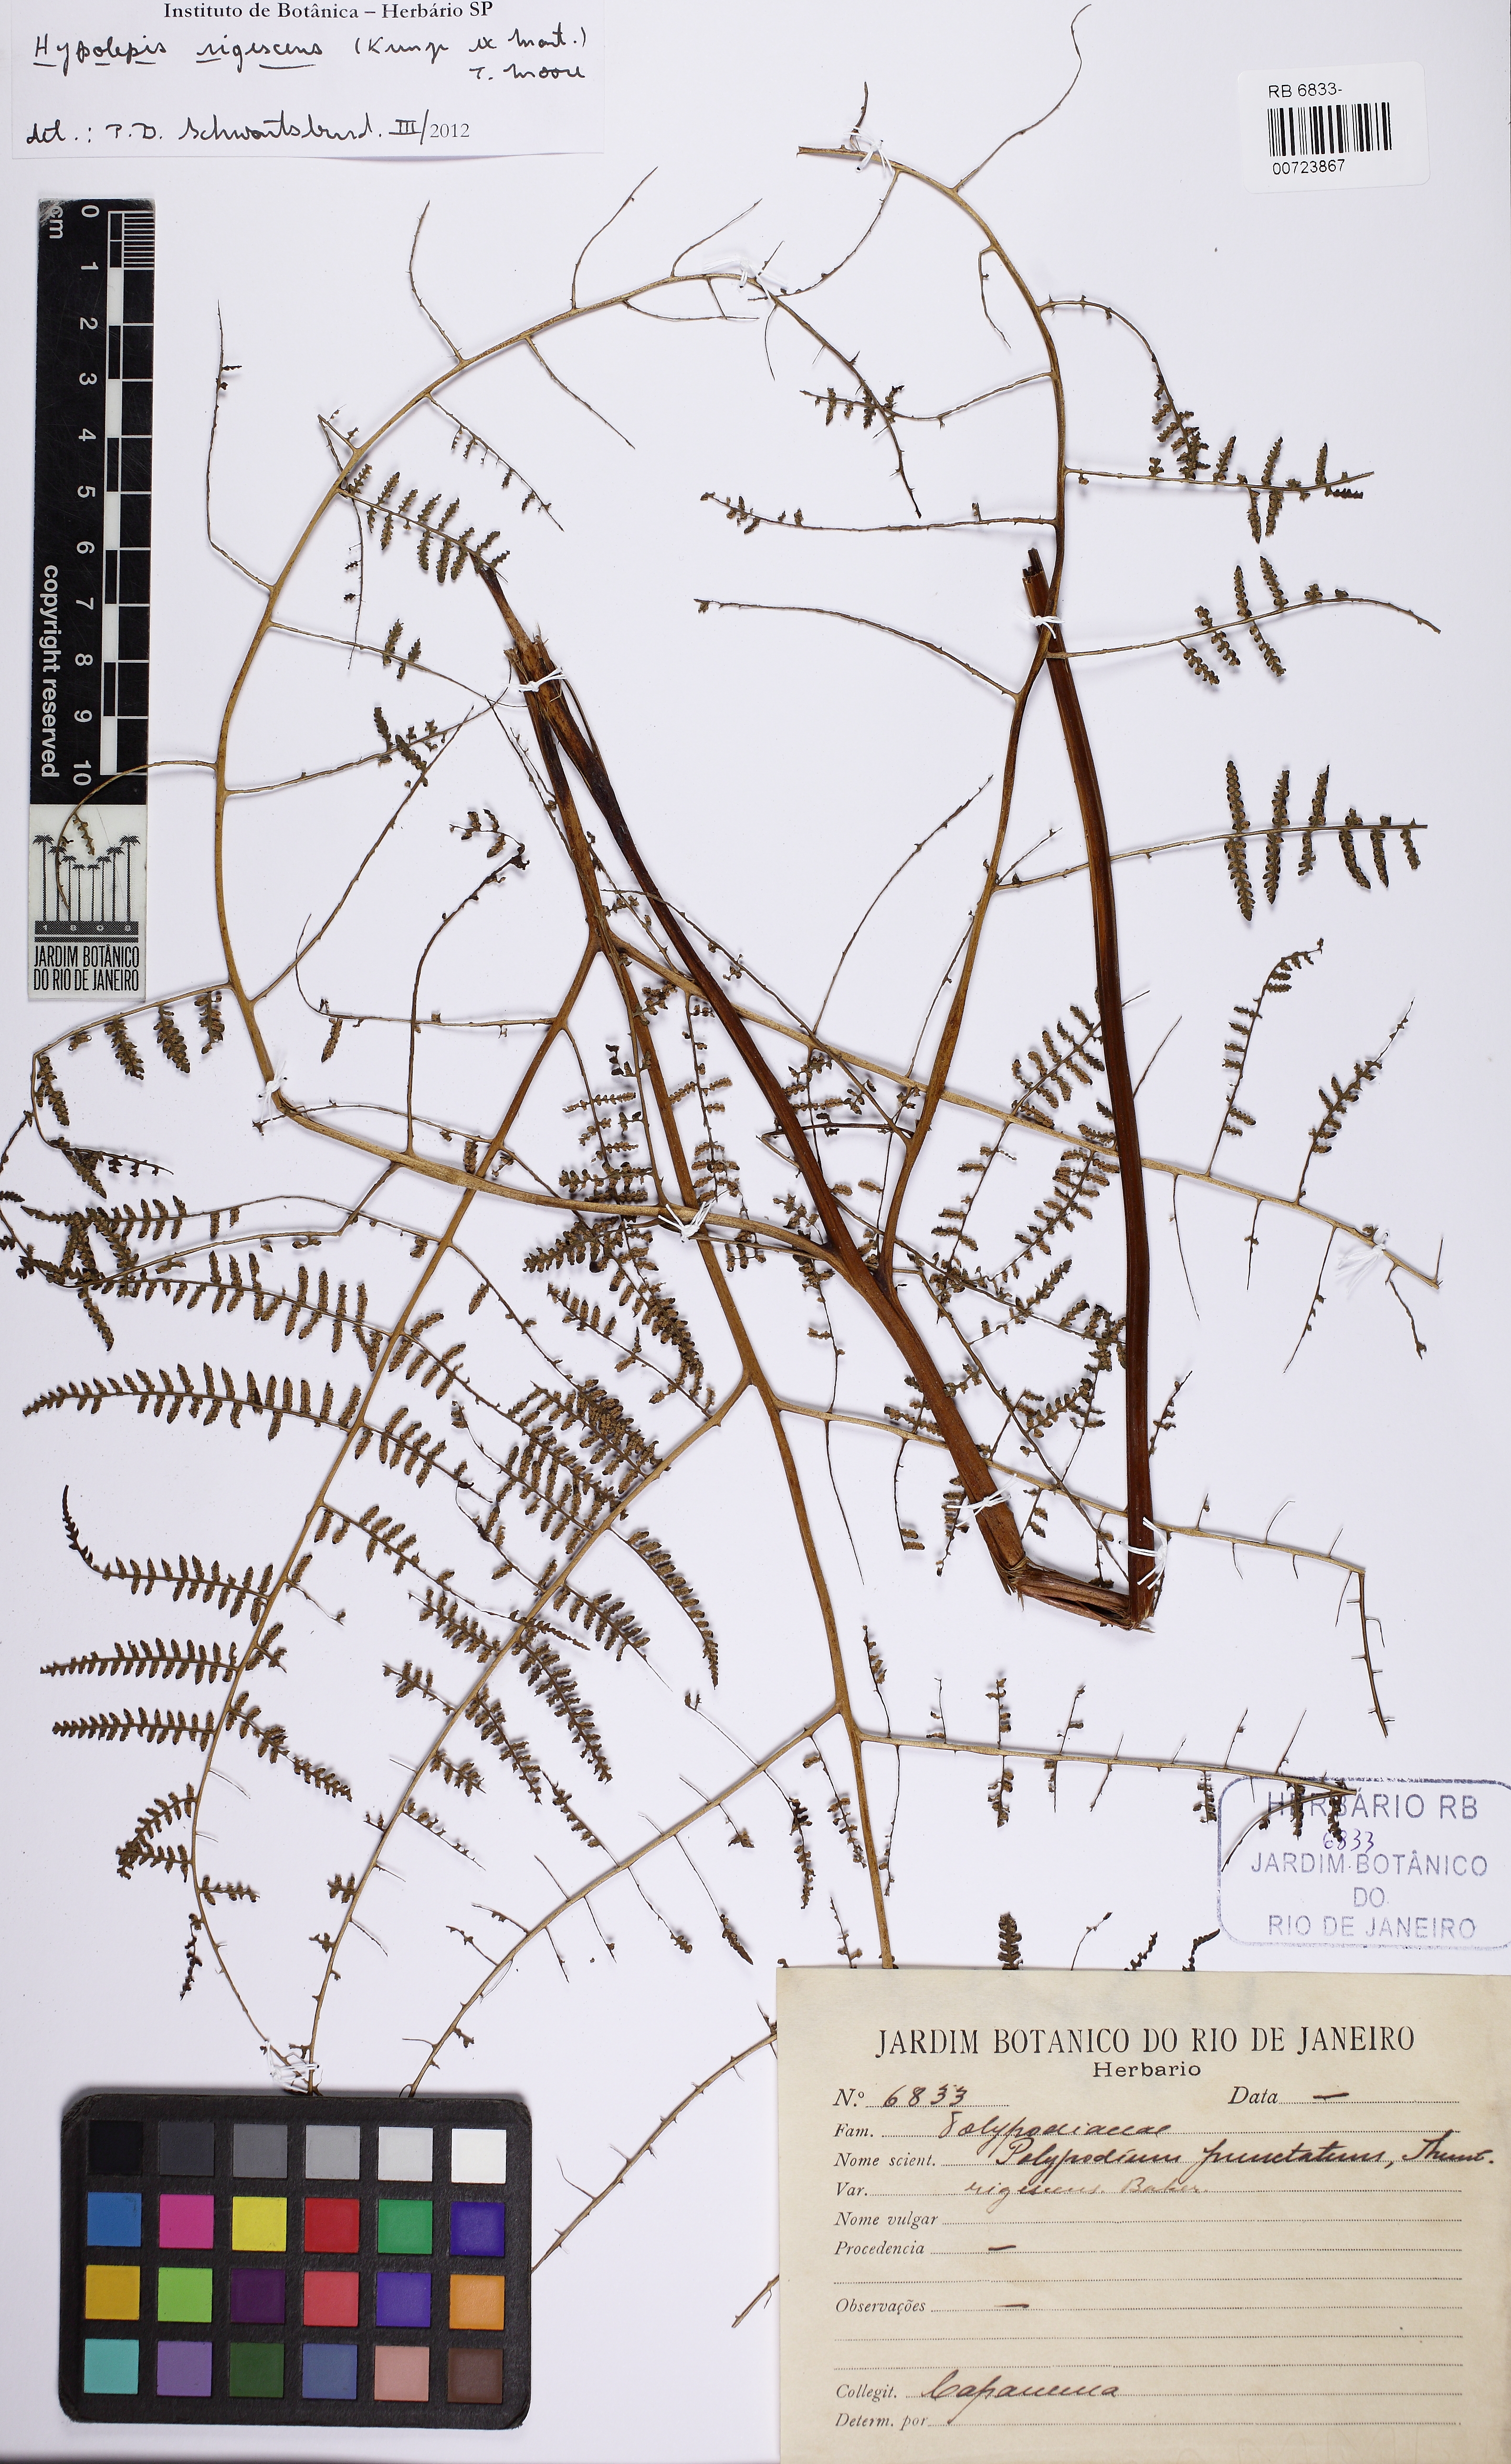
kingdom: Plantae
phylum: Tracheophyta
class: Polypodiopsida
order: Polypodiales
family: Dennstaedtiaceae
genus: Hiya
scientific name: Hiya nigrescens
